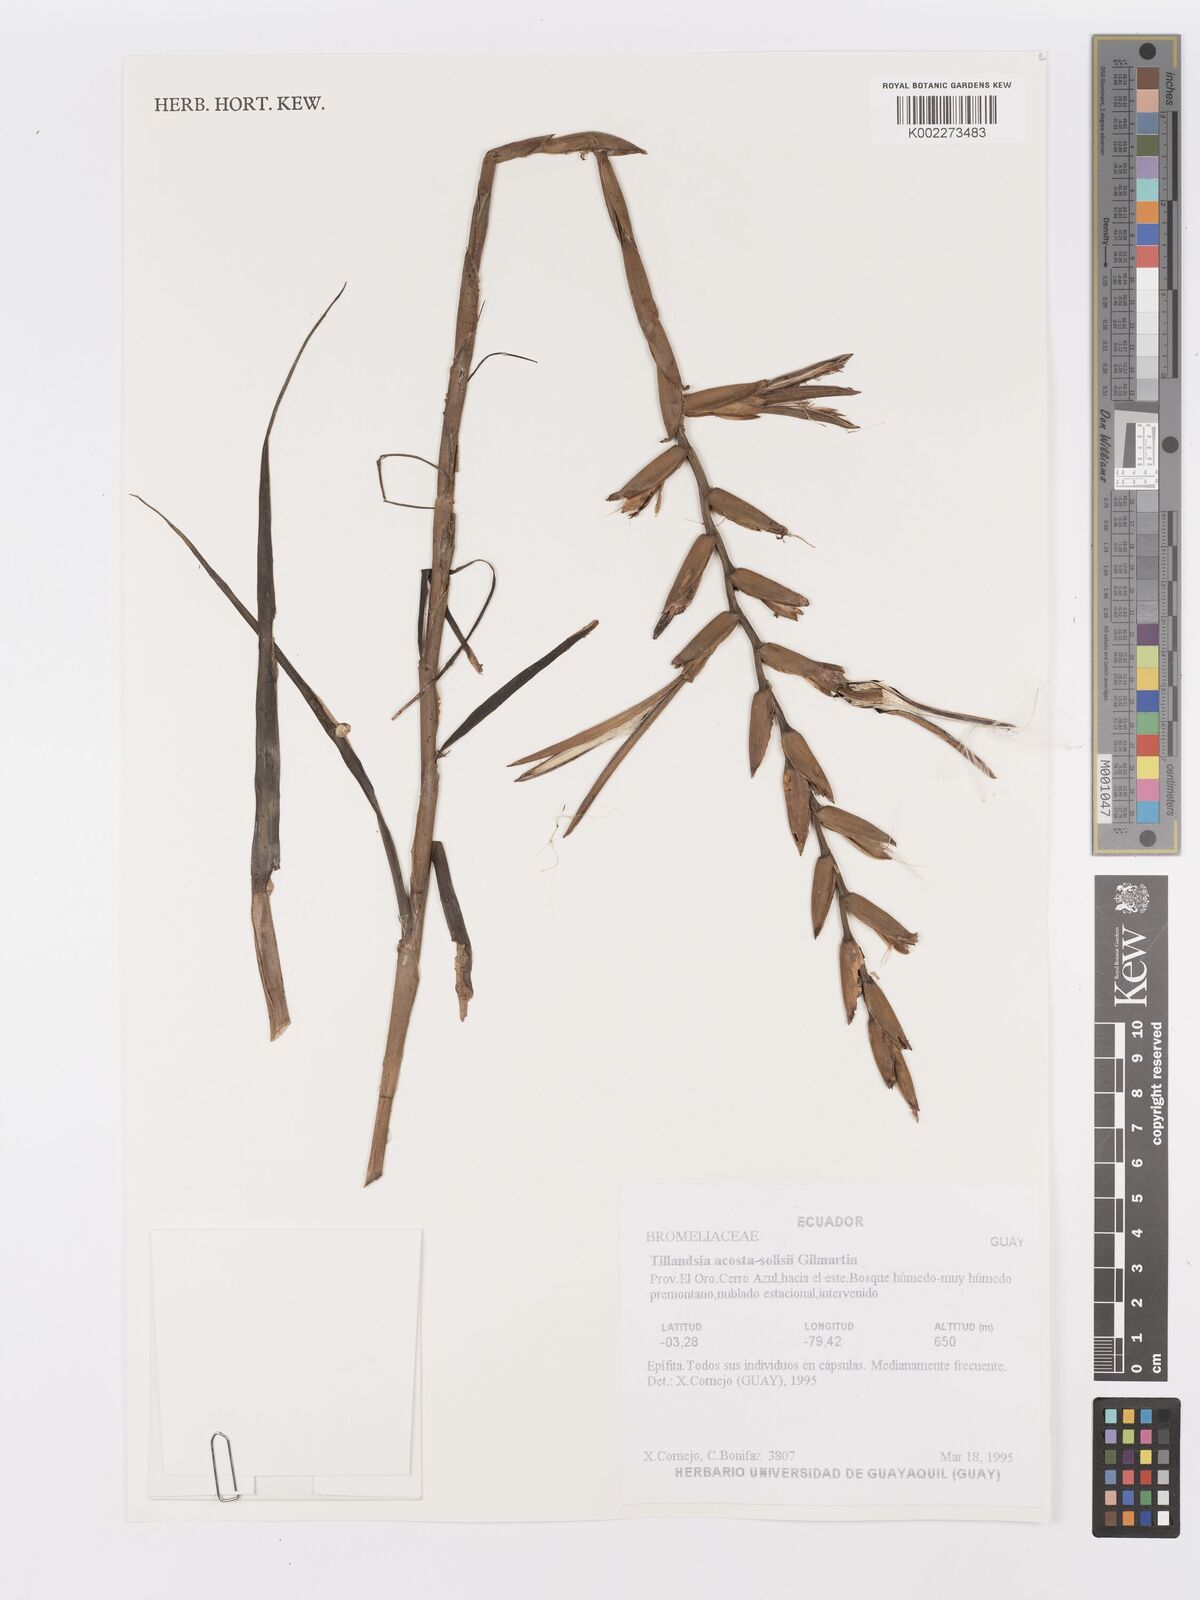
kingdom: Plantae
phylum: Tracheophyta
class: Liliopsida
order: Poales
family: Bromeliaceae
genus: Lemeltonia
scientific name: Lemeltonia acosta-solisii
